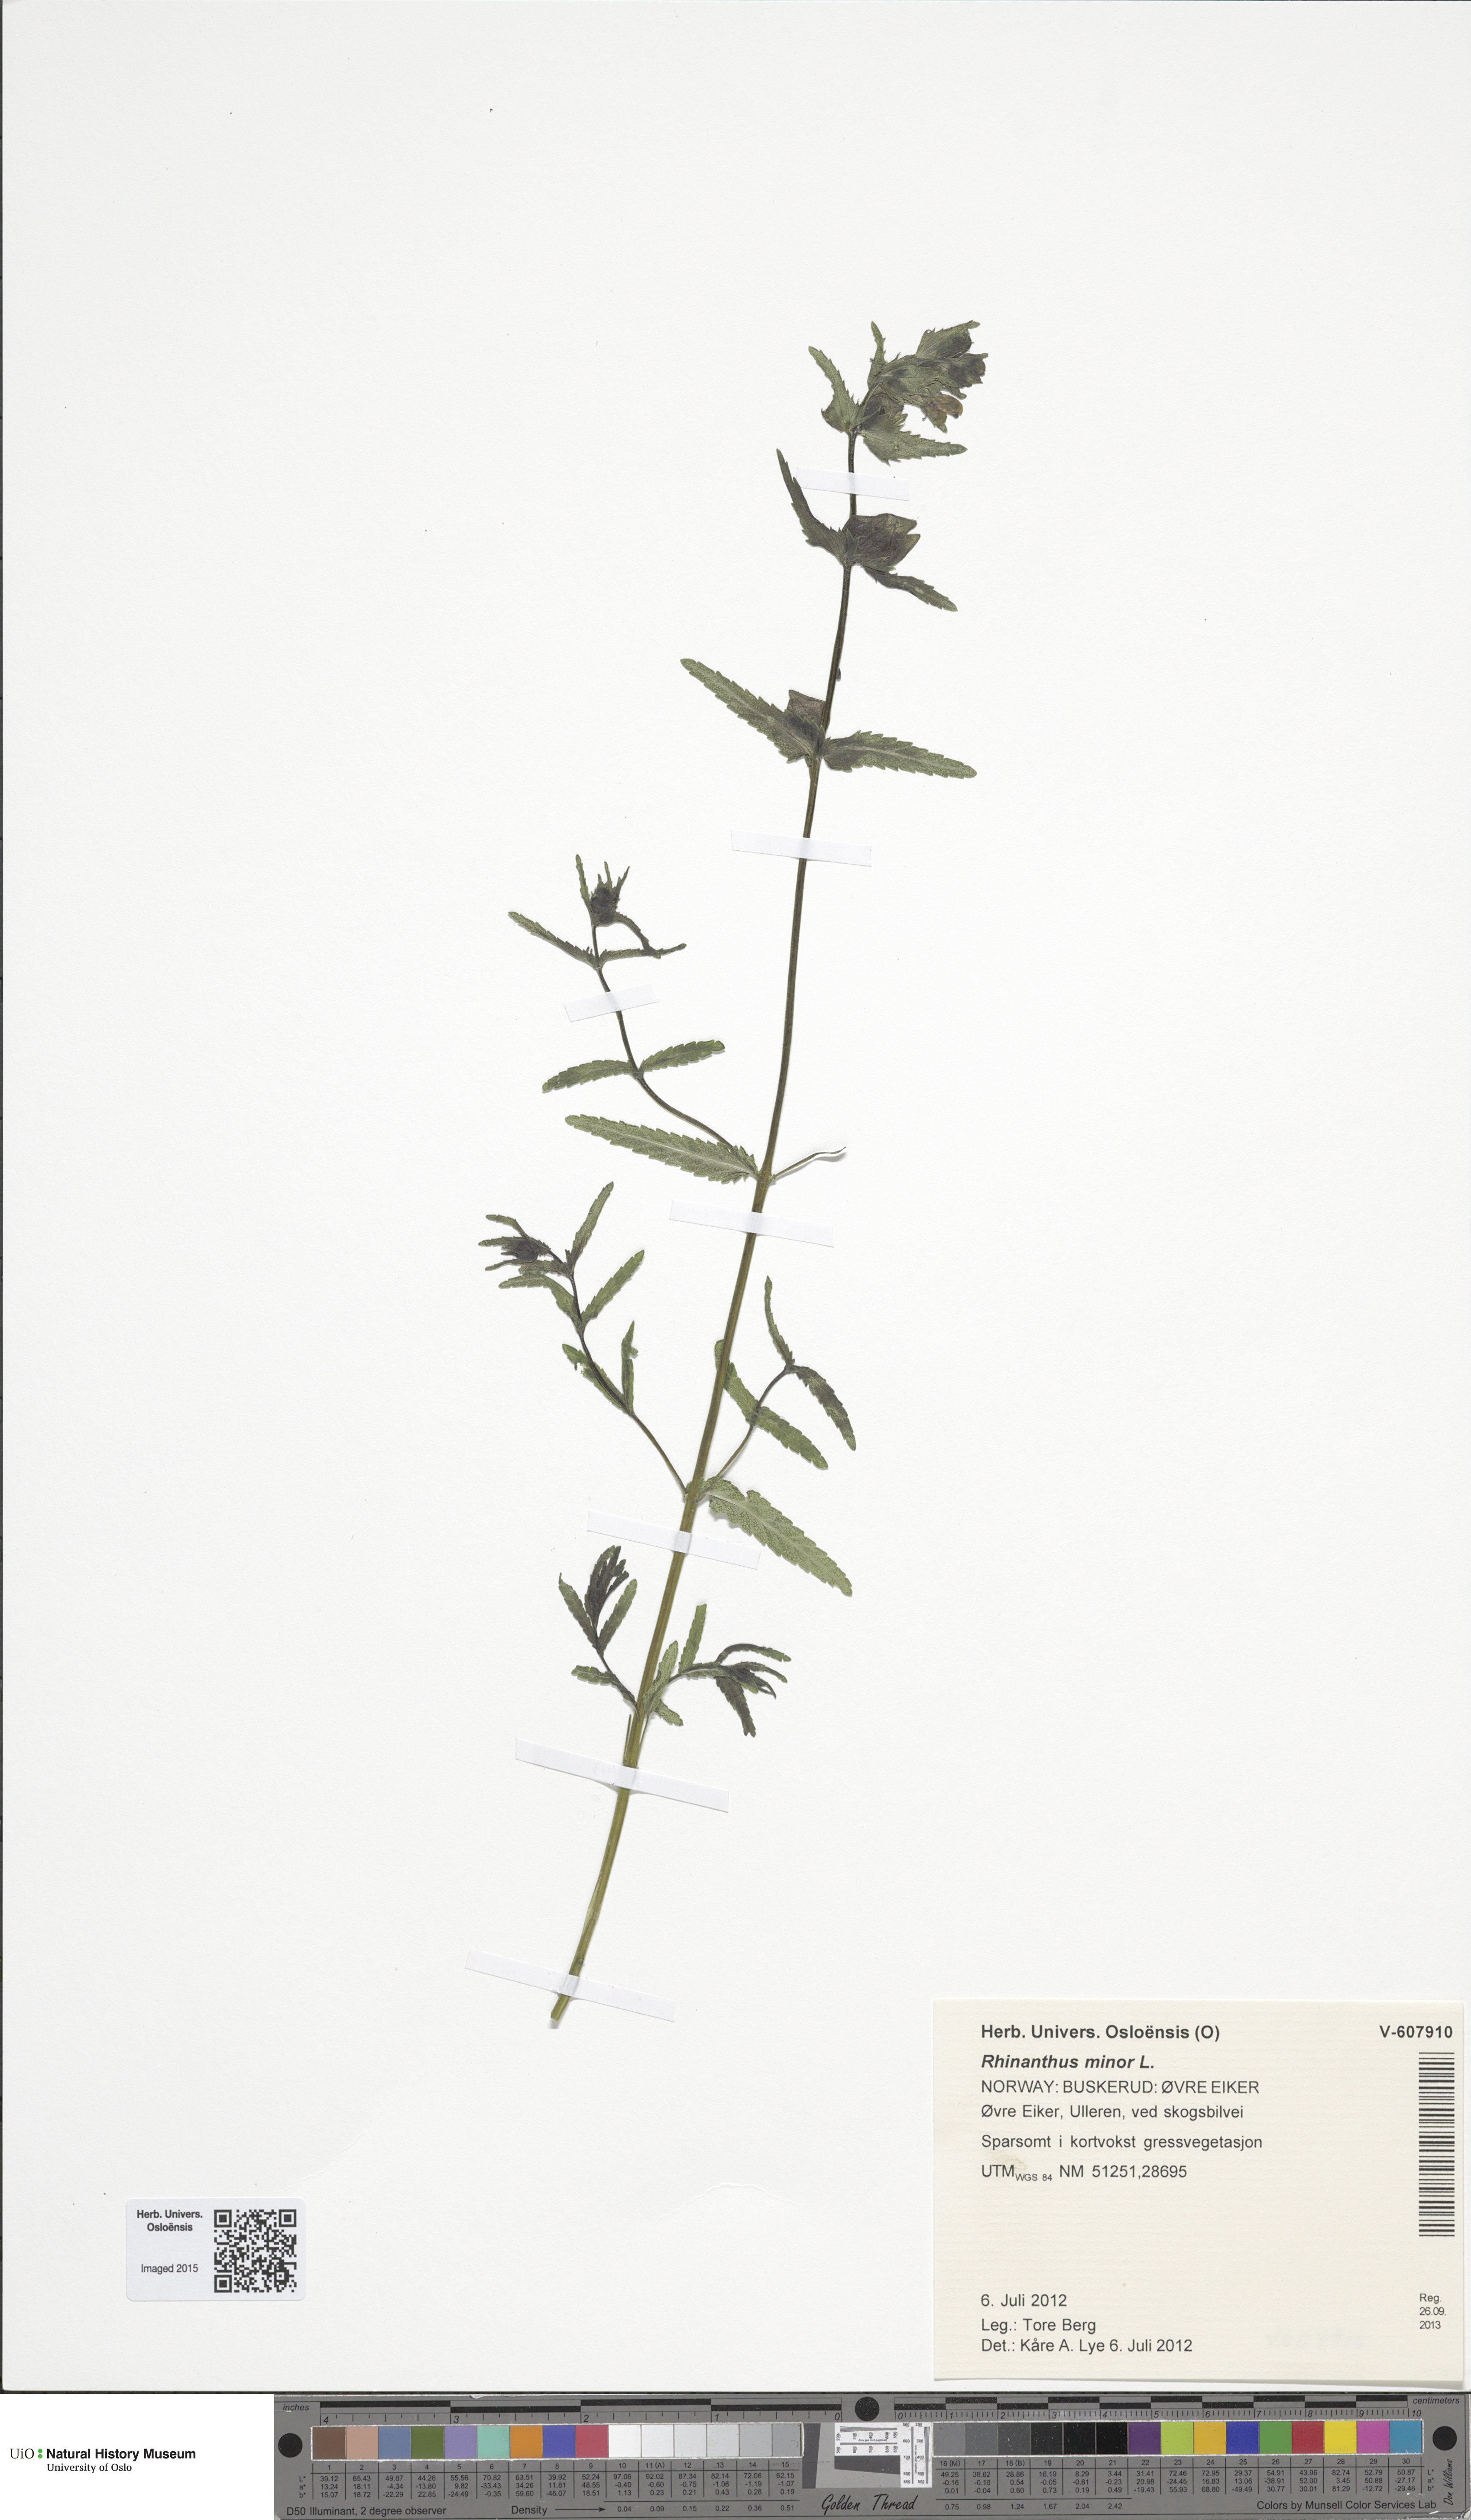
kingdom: Plantae
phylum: Tracheophyta
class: Magnoliopsida
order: Lamiales
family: Orobanchaceae
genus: Rhinanthus
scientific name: Rhinanthus minor
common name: Yellow-rattle
